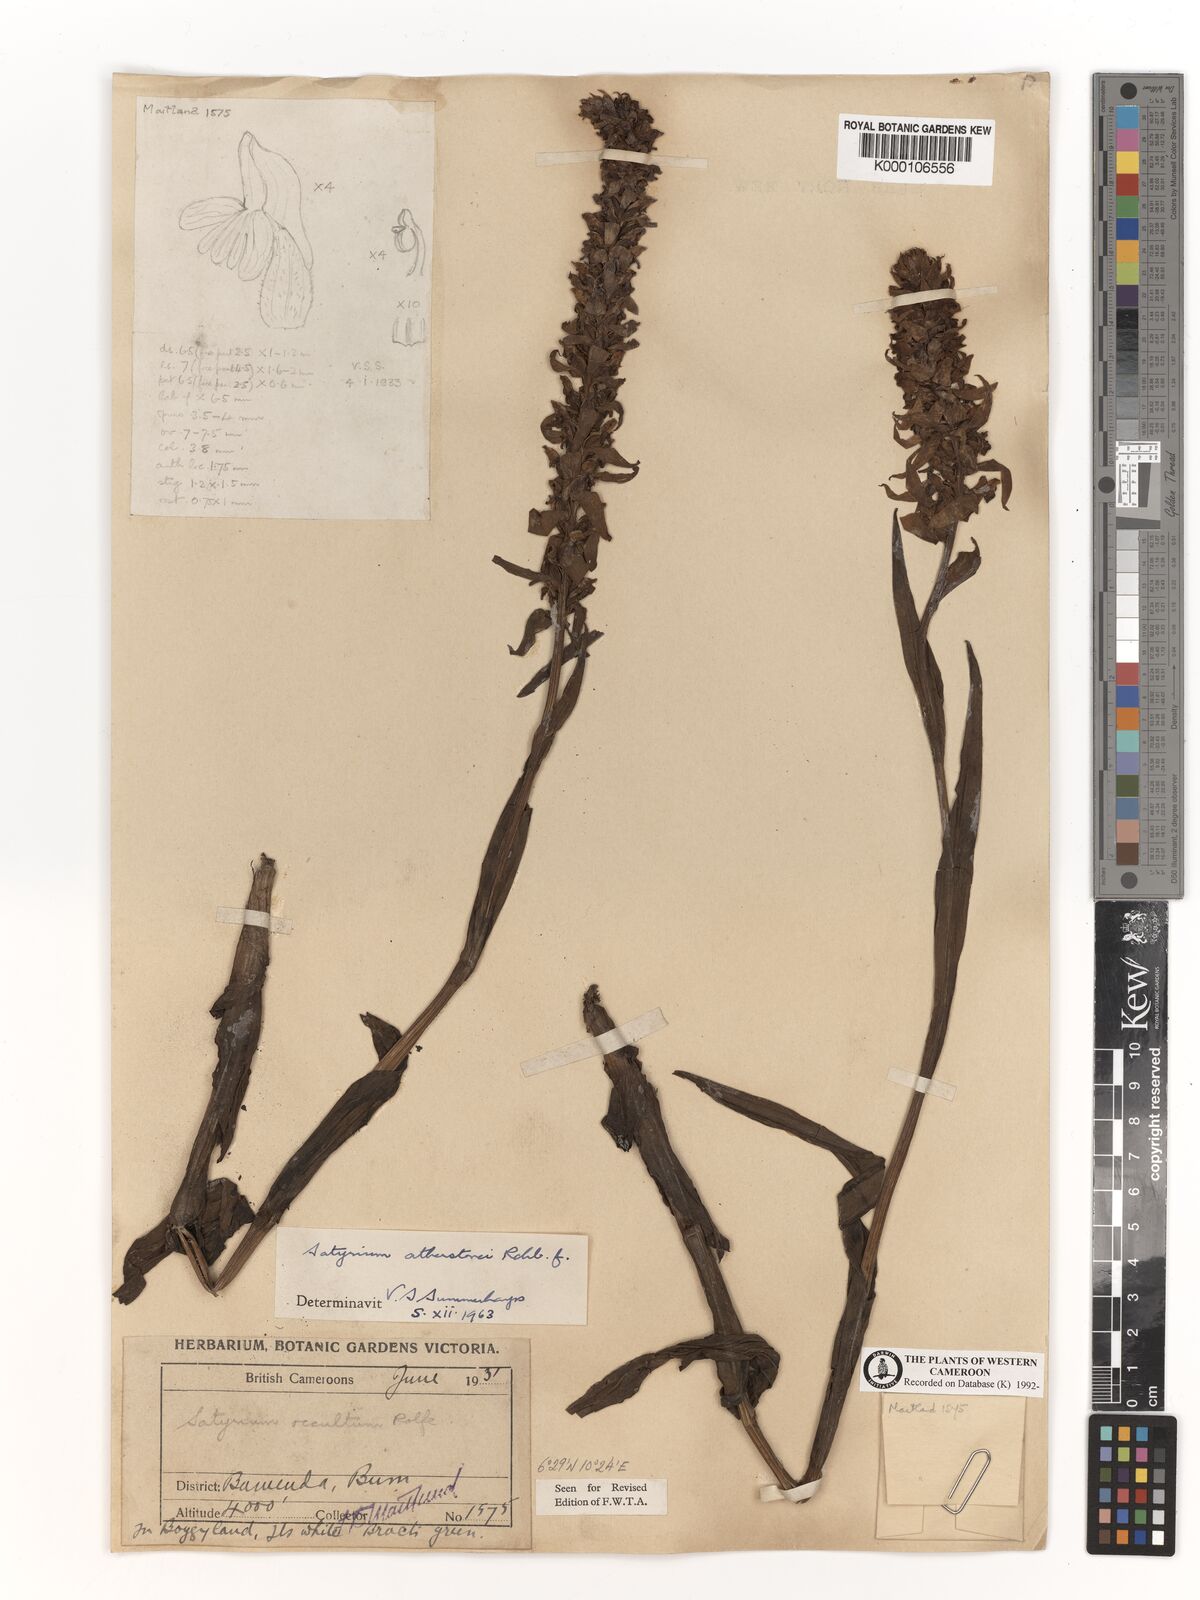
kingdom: Plantae
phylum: Tracheophyta
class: Liliopsida
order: Asparagales
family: Orchidaceae
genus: Satyrium
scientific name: Satyrium trinerve
